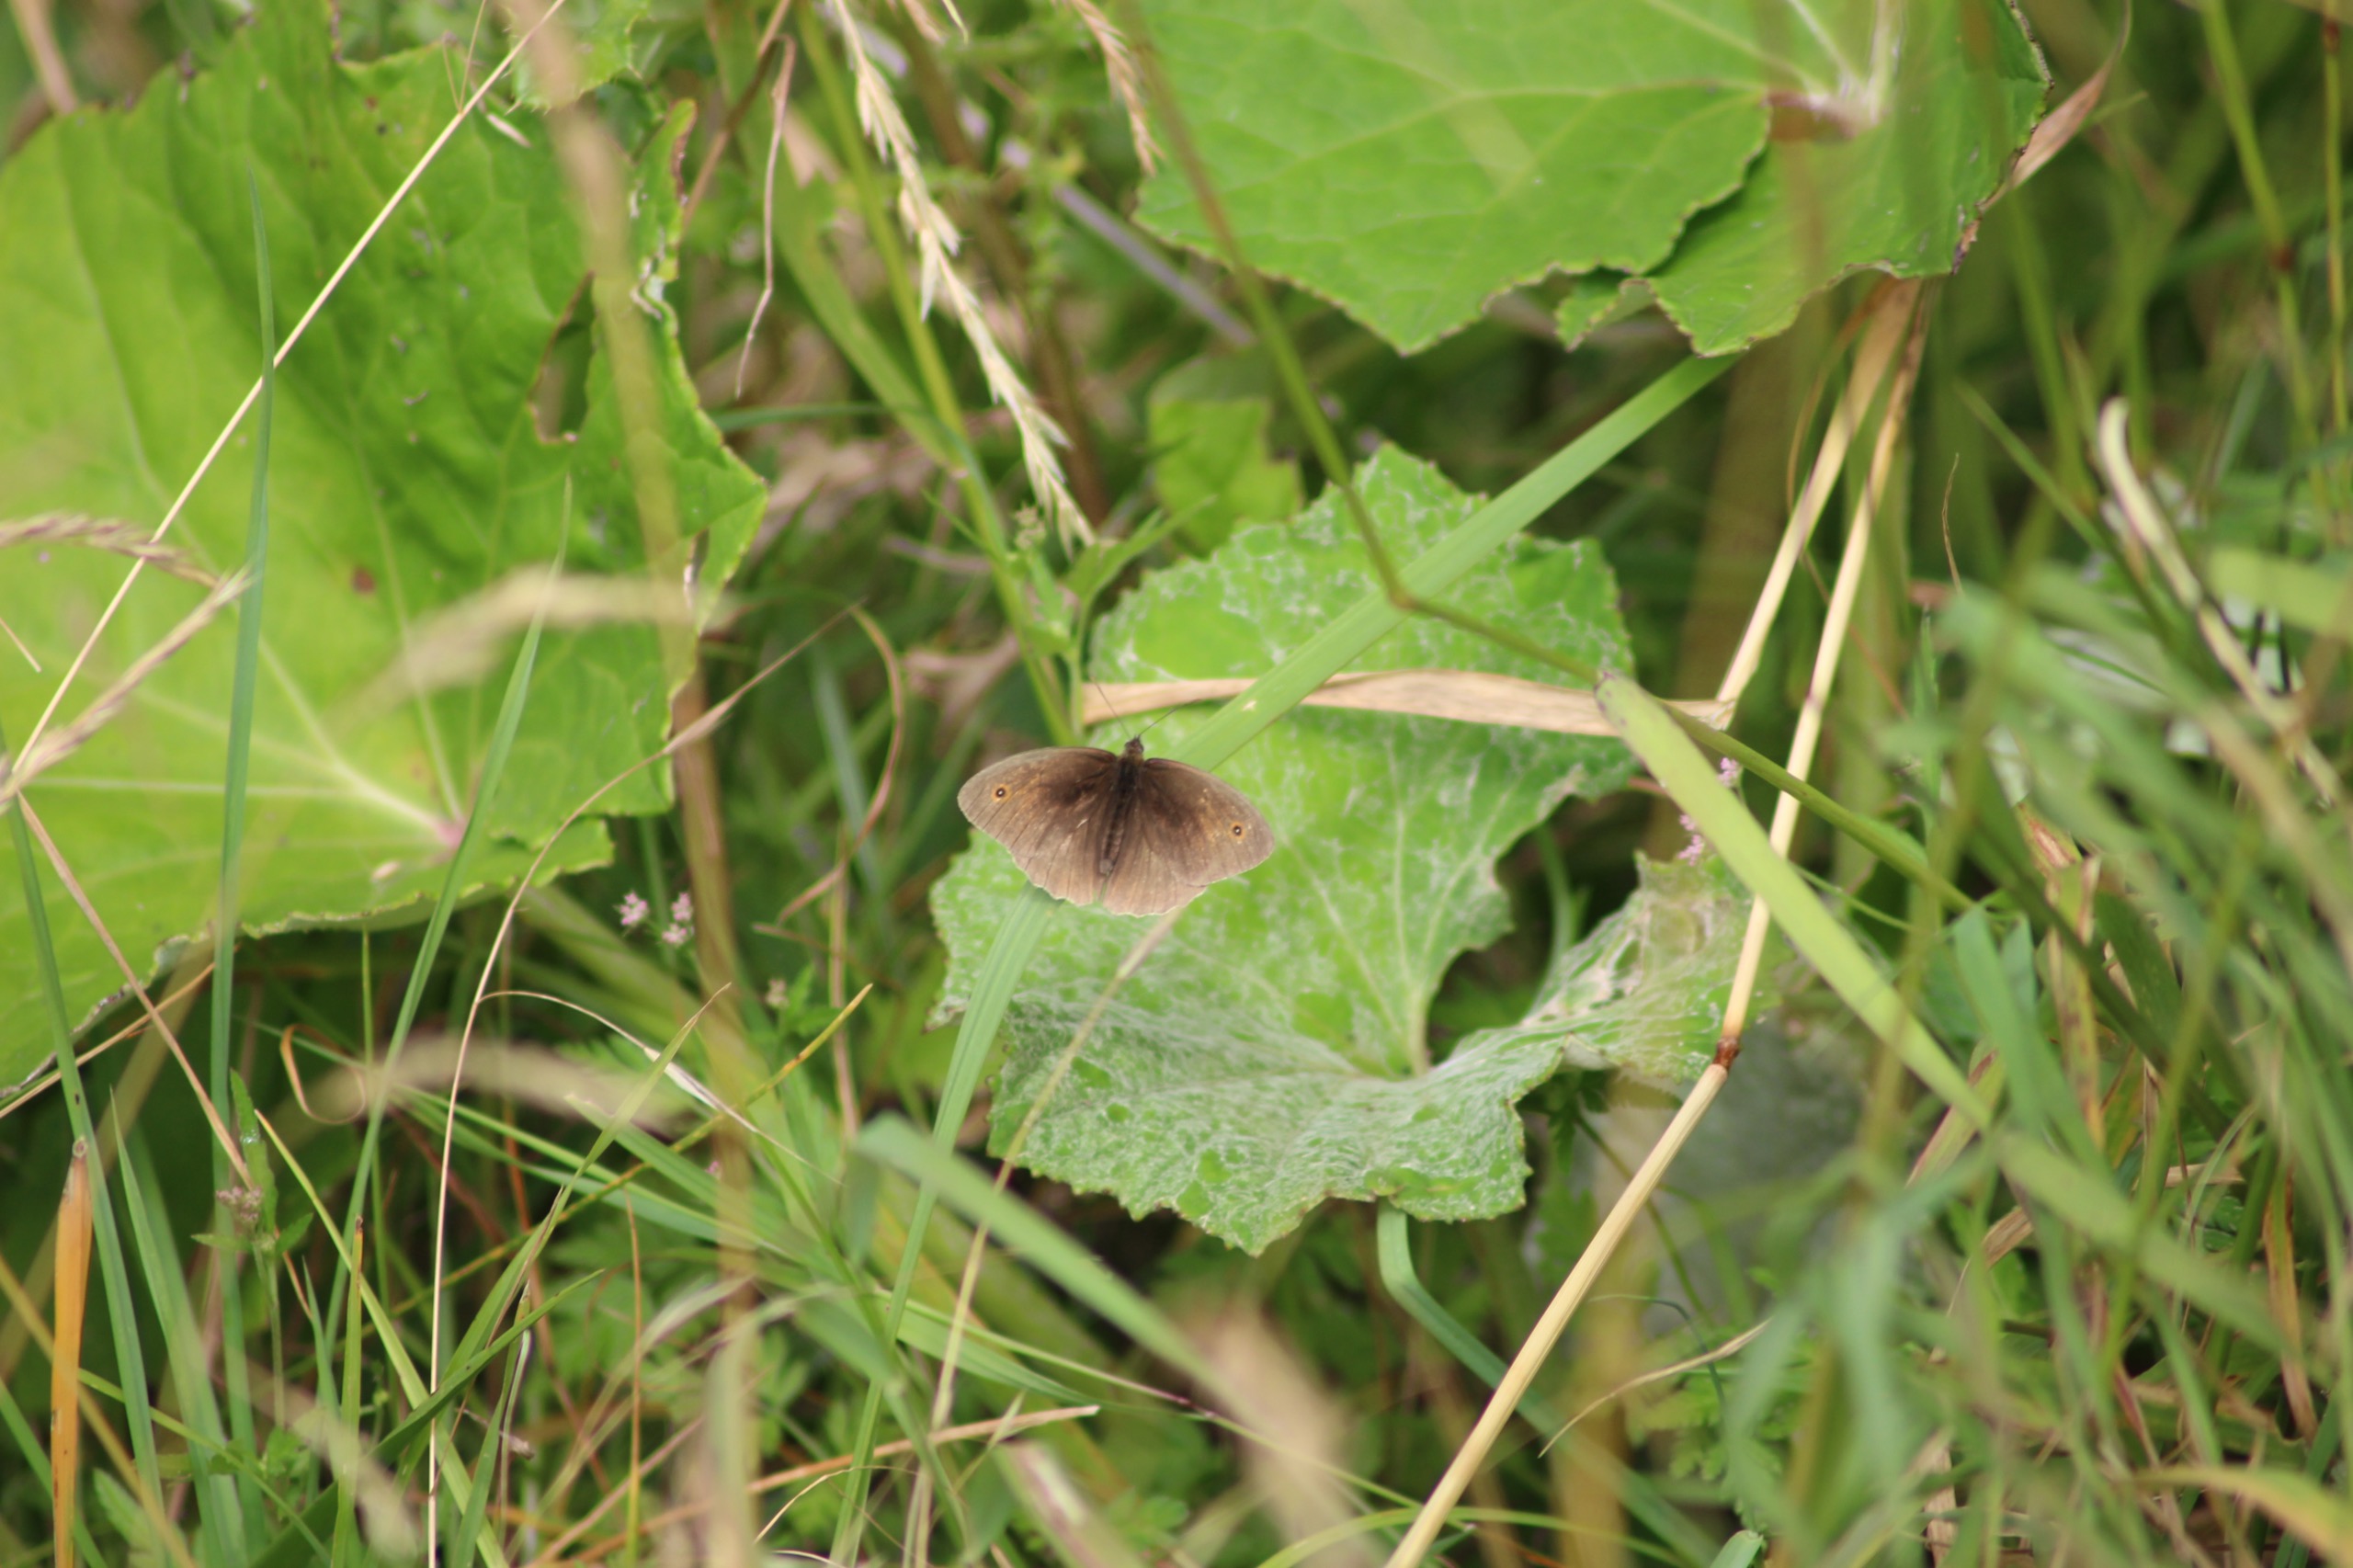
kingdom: Animalia
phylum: Arthropoda
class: Insecta
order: Lepidoptera
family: Nymphalidae
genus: Maniola
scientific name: Maniola jurtina
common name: Græsrandøje
